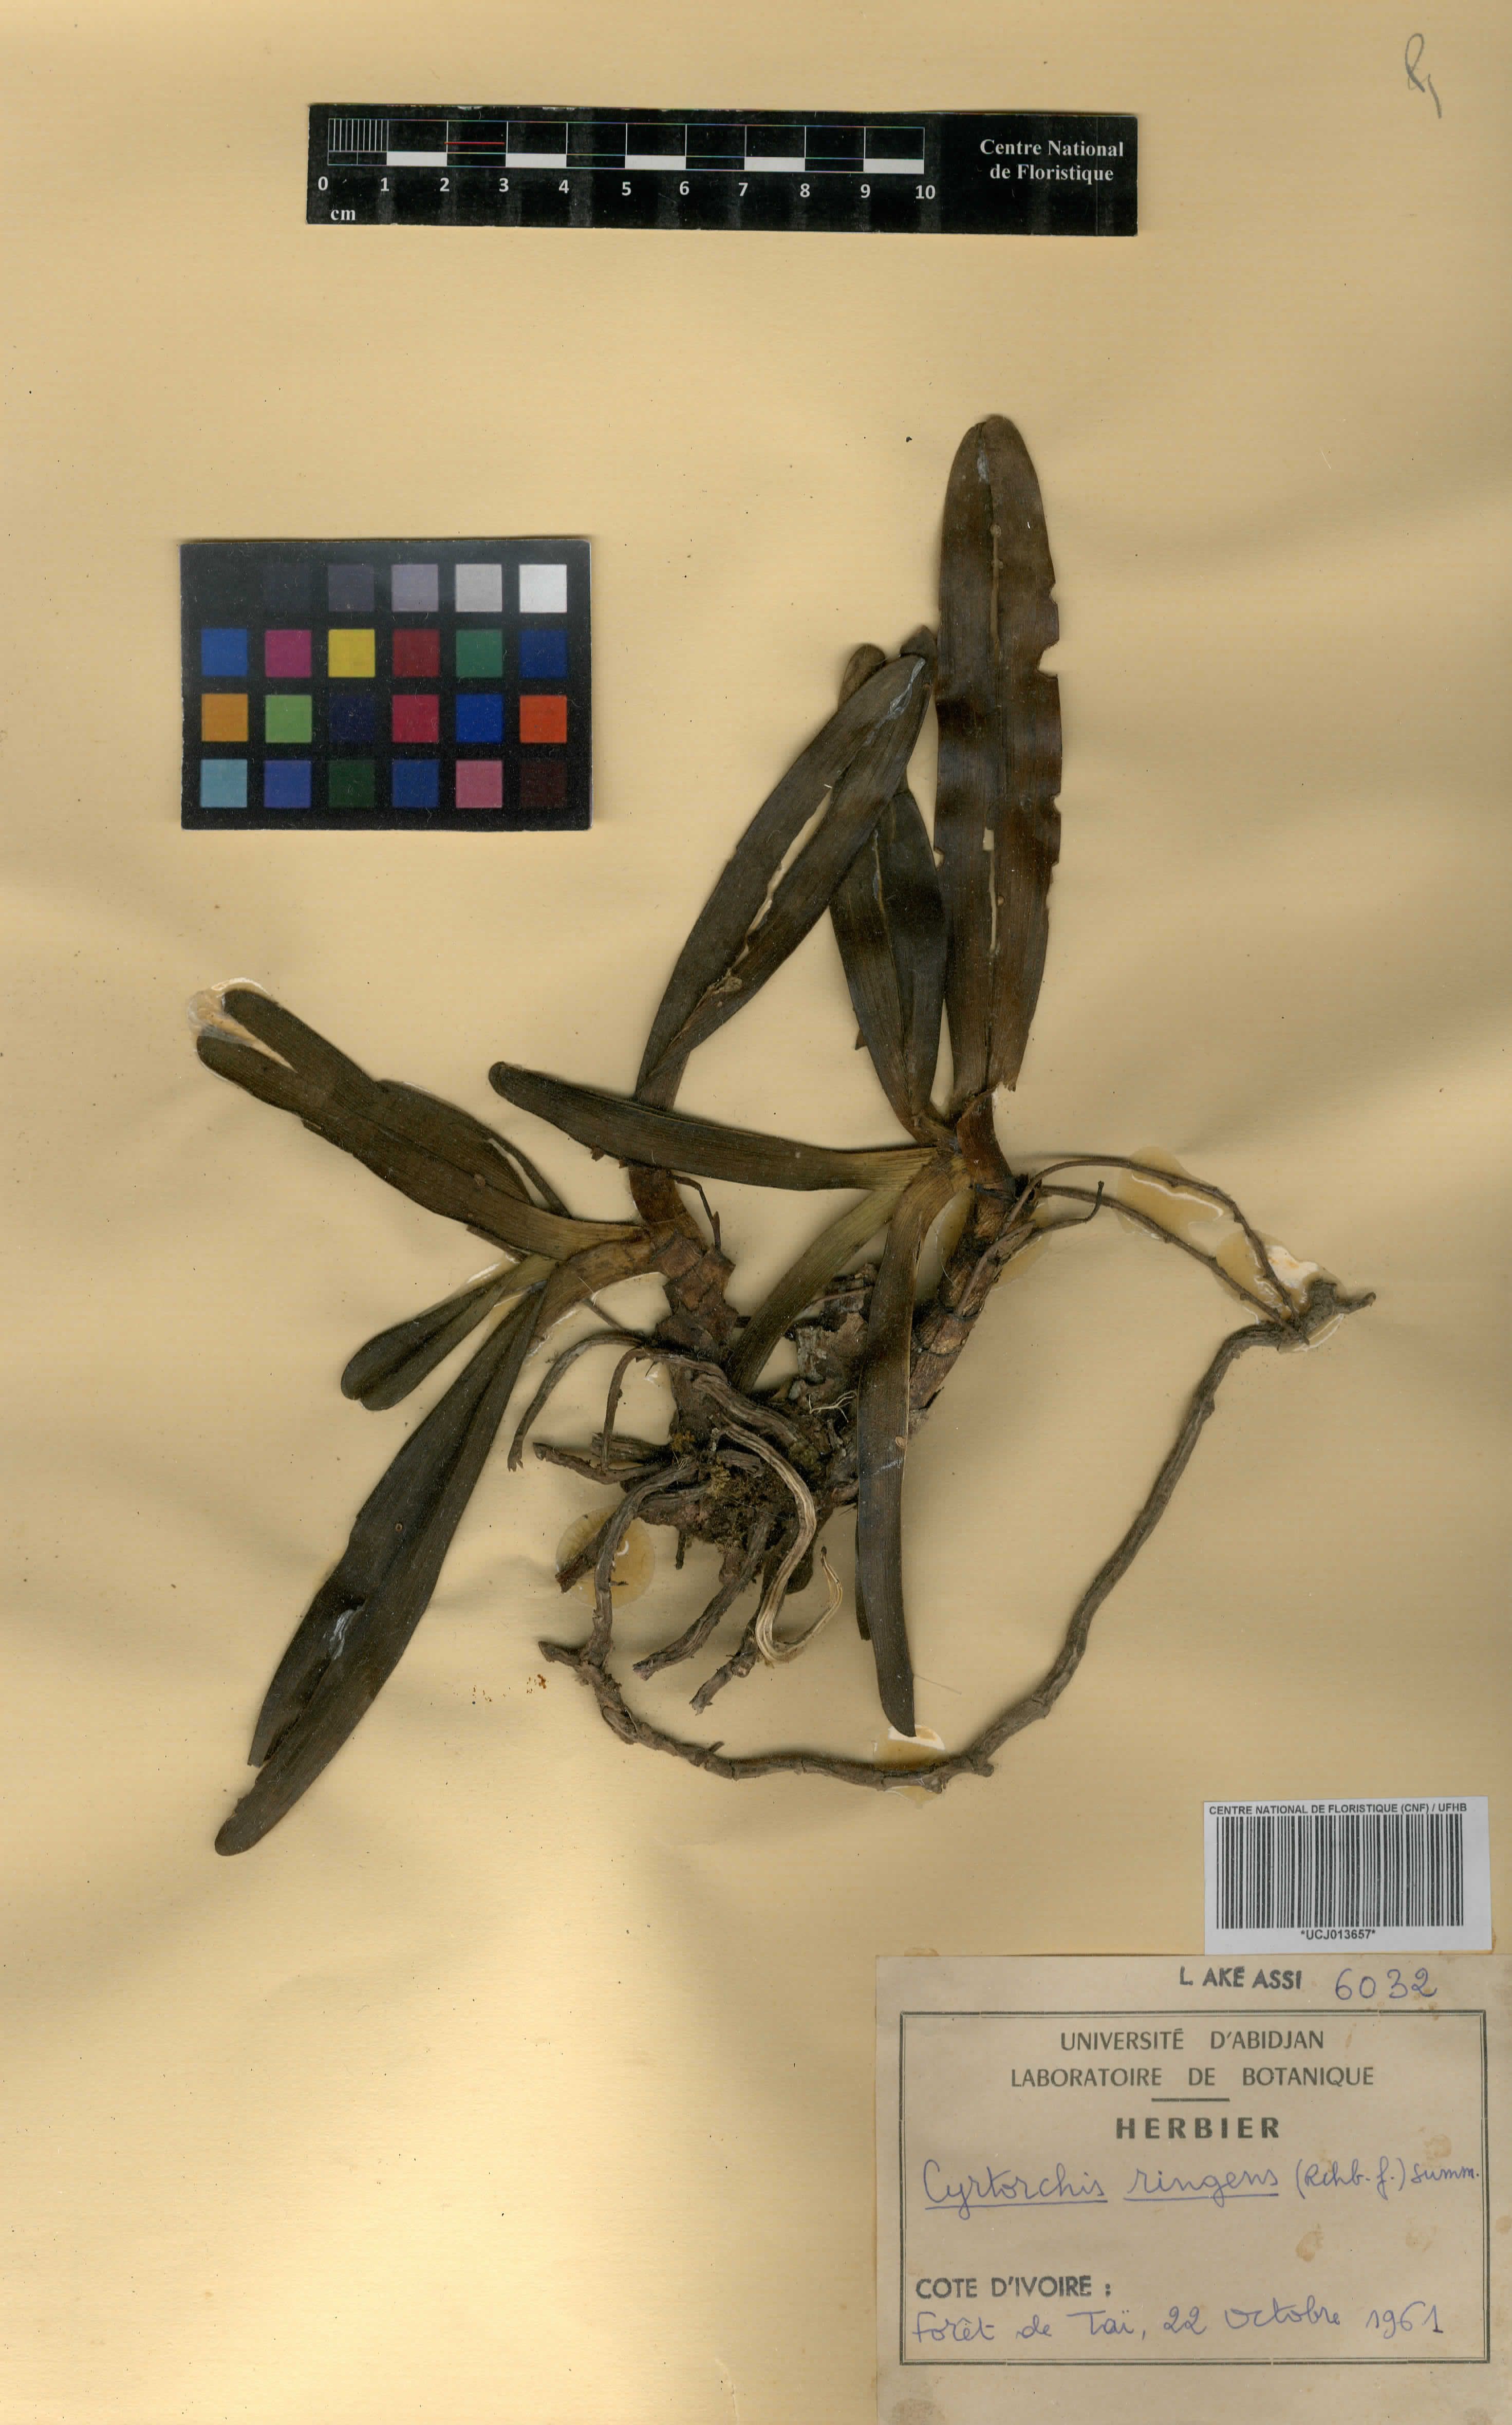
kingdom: Plantae
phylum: Tracheophyta
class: Liliopsida
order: Asparagales
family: Orchidaceae
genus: Cyrtorchis
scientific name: Cyrtorchis ringens
